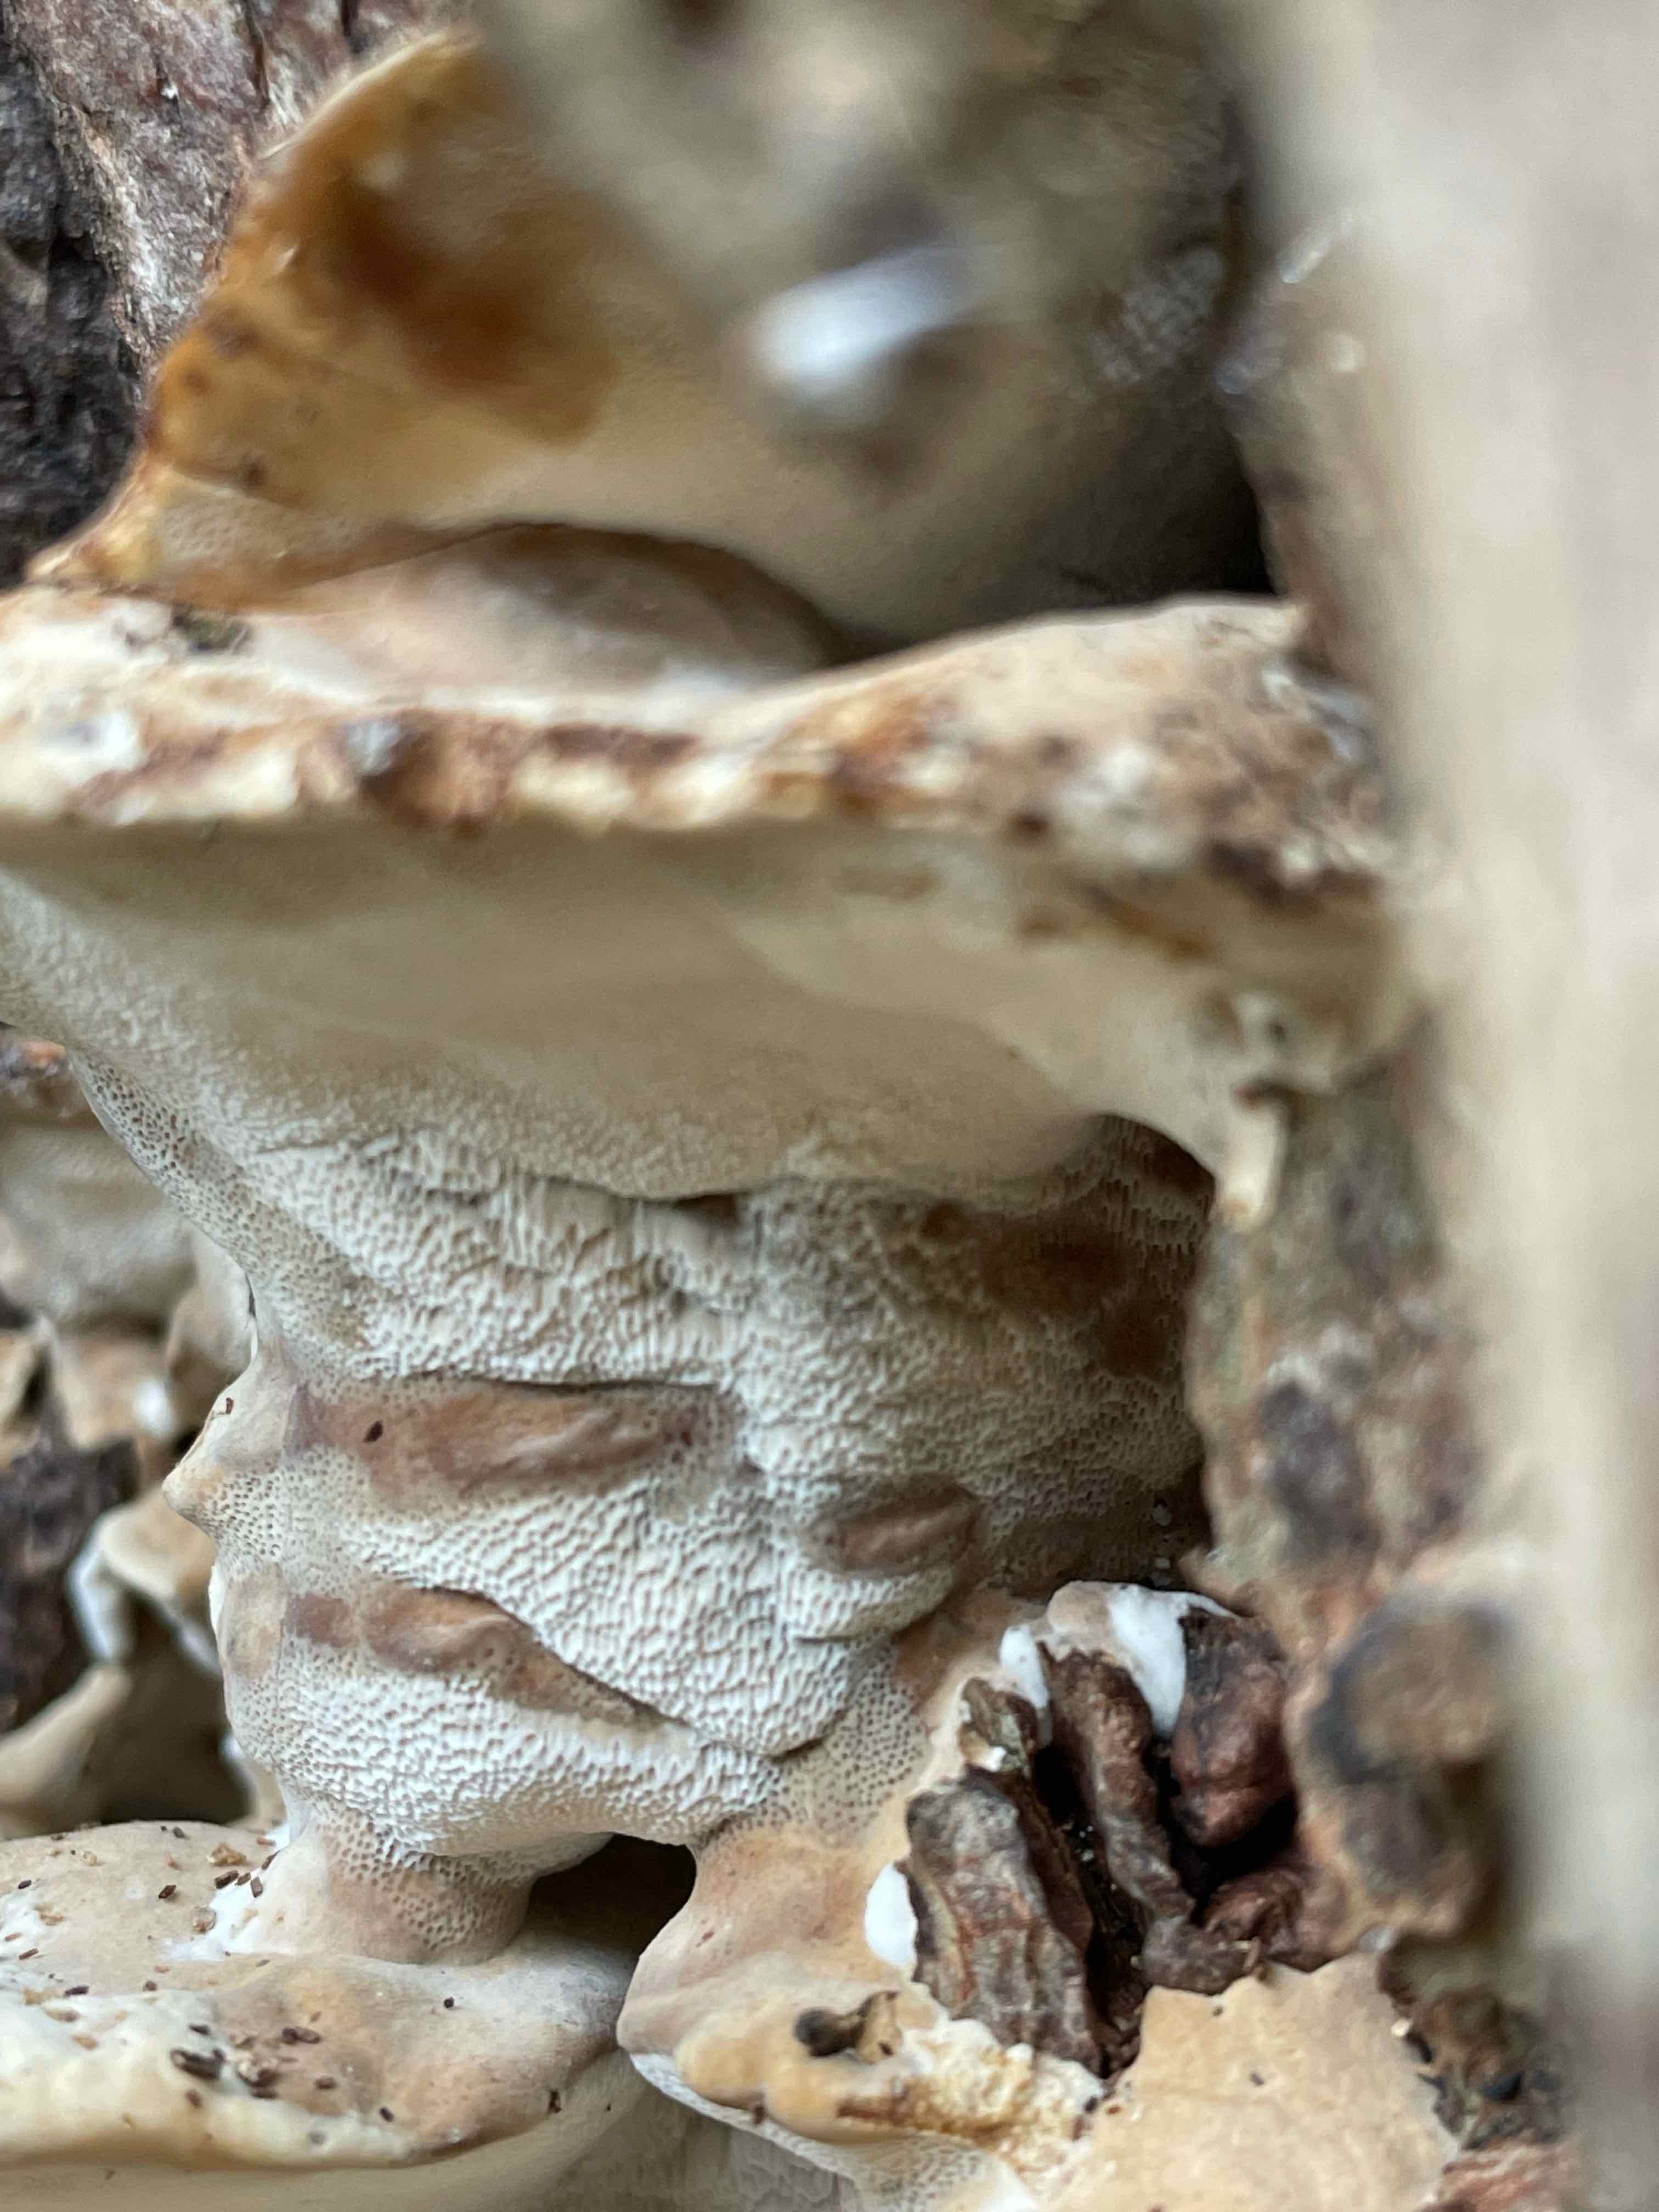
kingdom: Fungi
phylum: Basidiomycota
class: Agaricomycetes
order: Polyporales
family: Phanerochaetaceae
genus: Bjerkandera
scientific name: Bjerkandera fumosa
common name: grågul sodporesvamp
